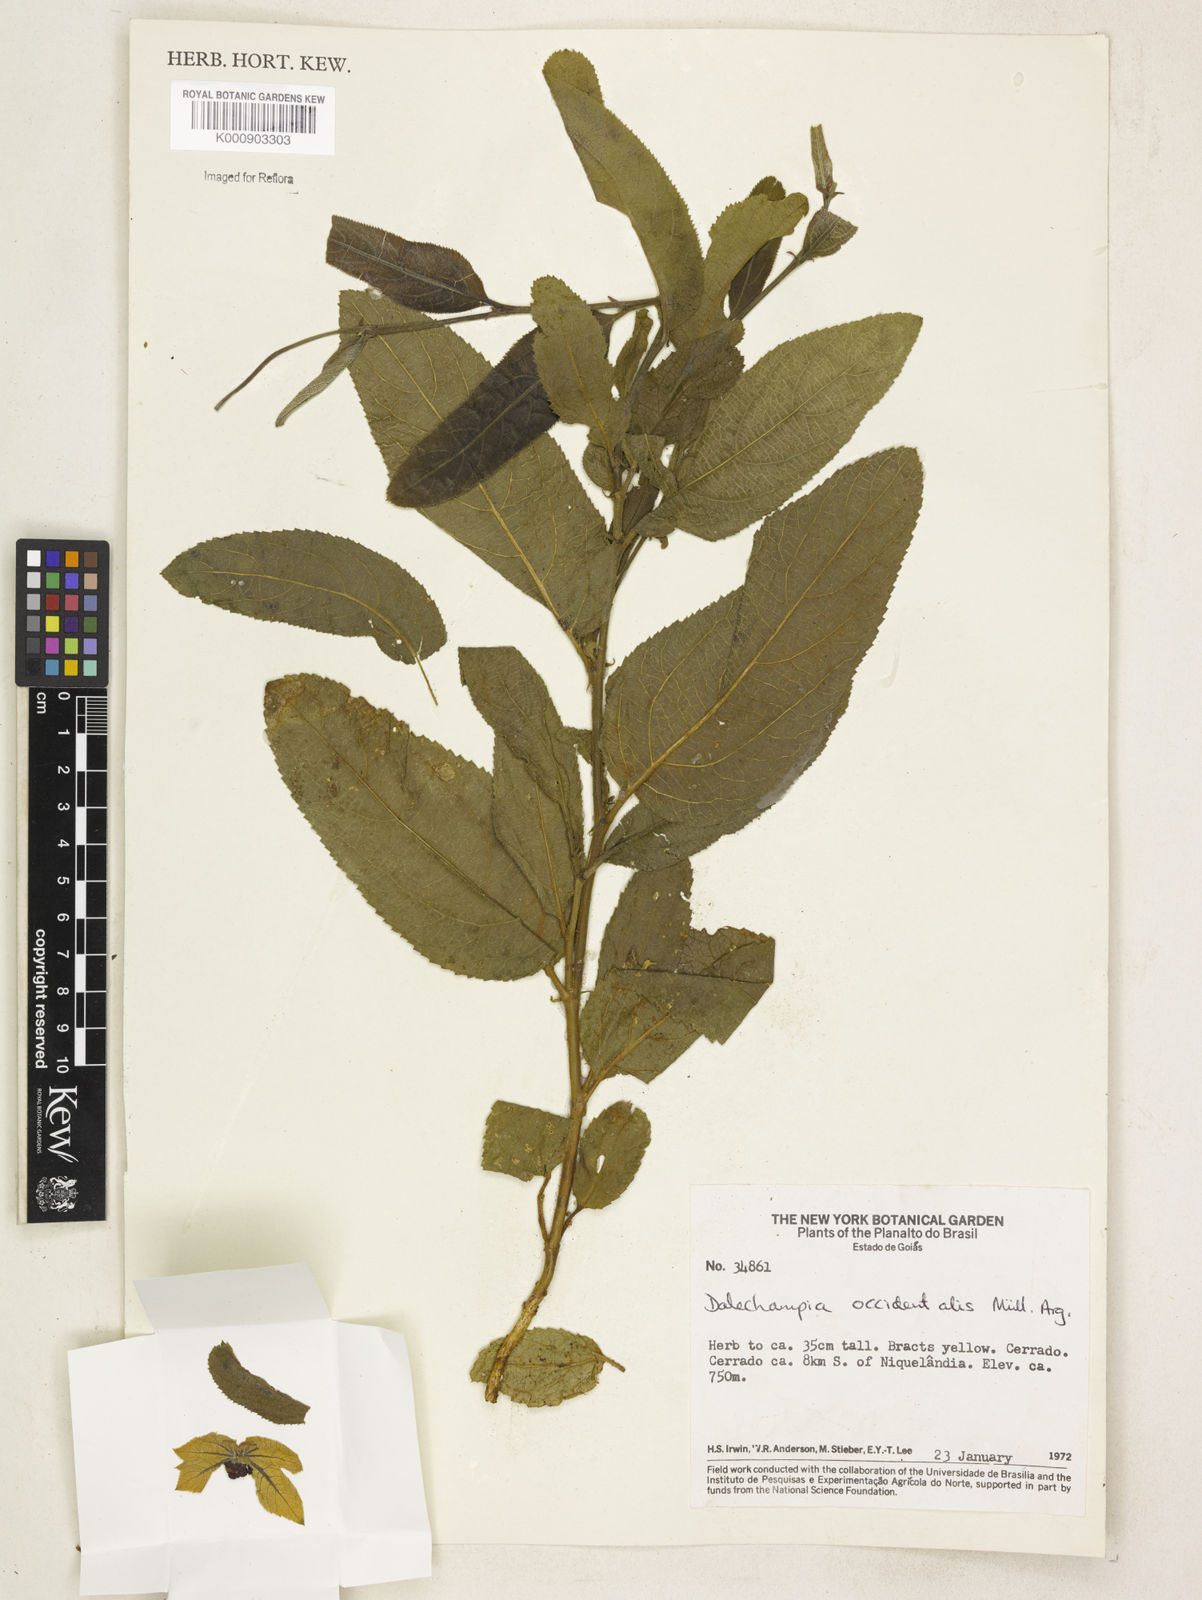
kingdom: Plantae
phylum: Tracheophyta
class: Magnoliopsida
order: Malpighiales
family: Euphorbiaceae
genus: Dalechampia
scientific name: Dalechampia
